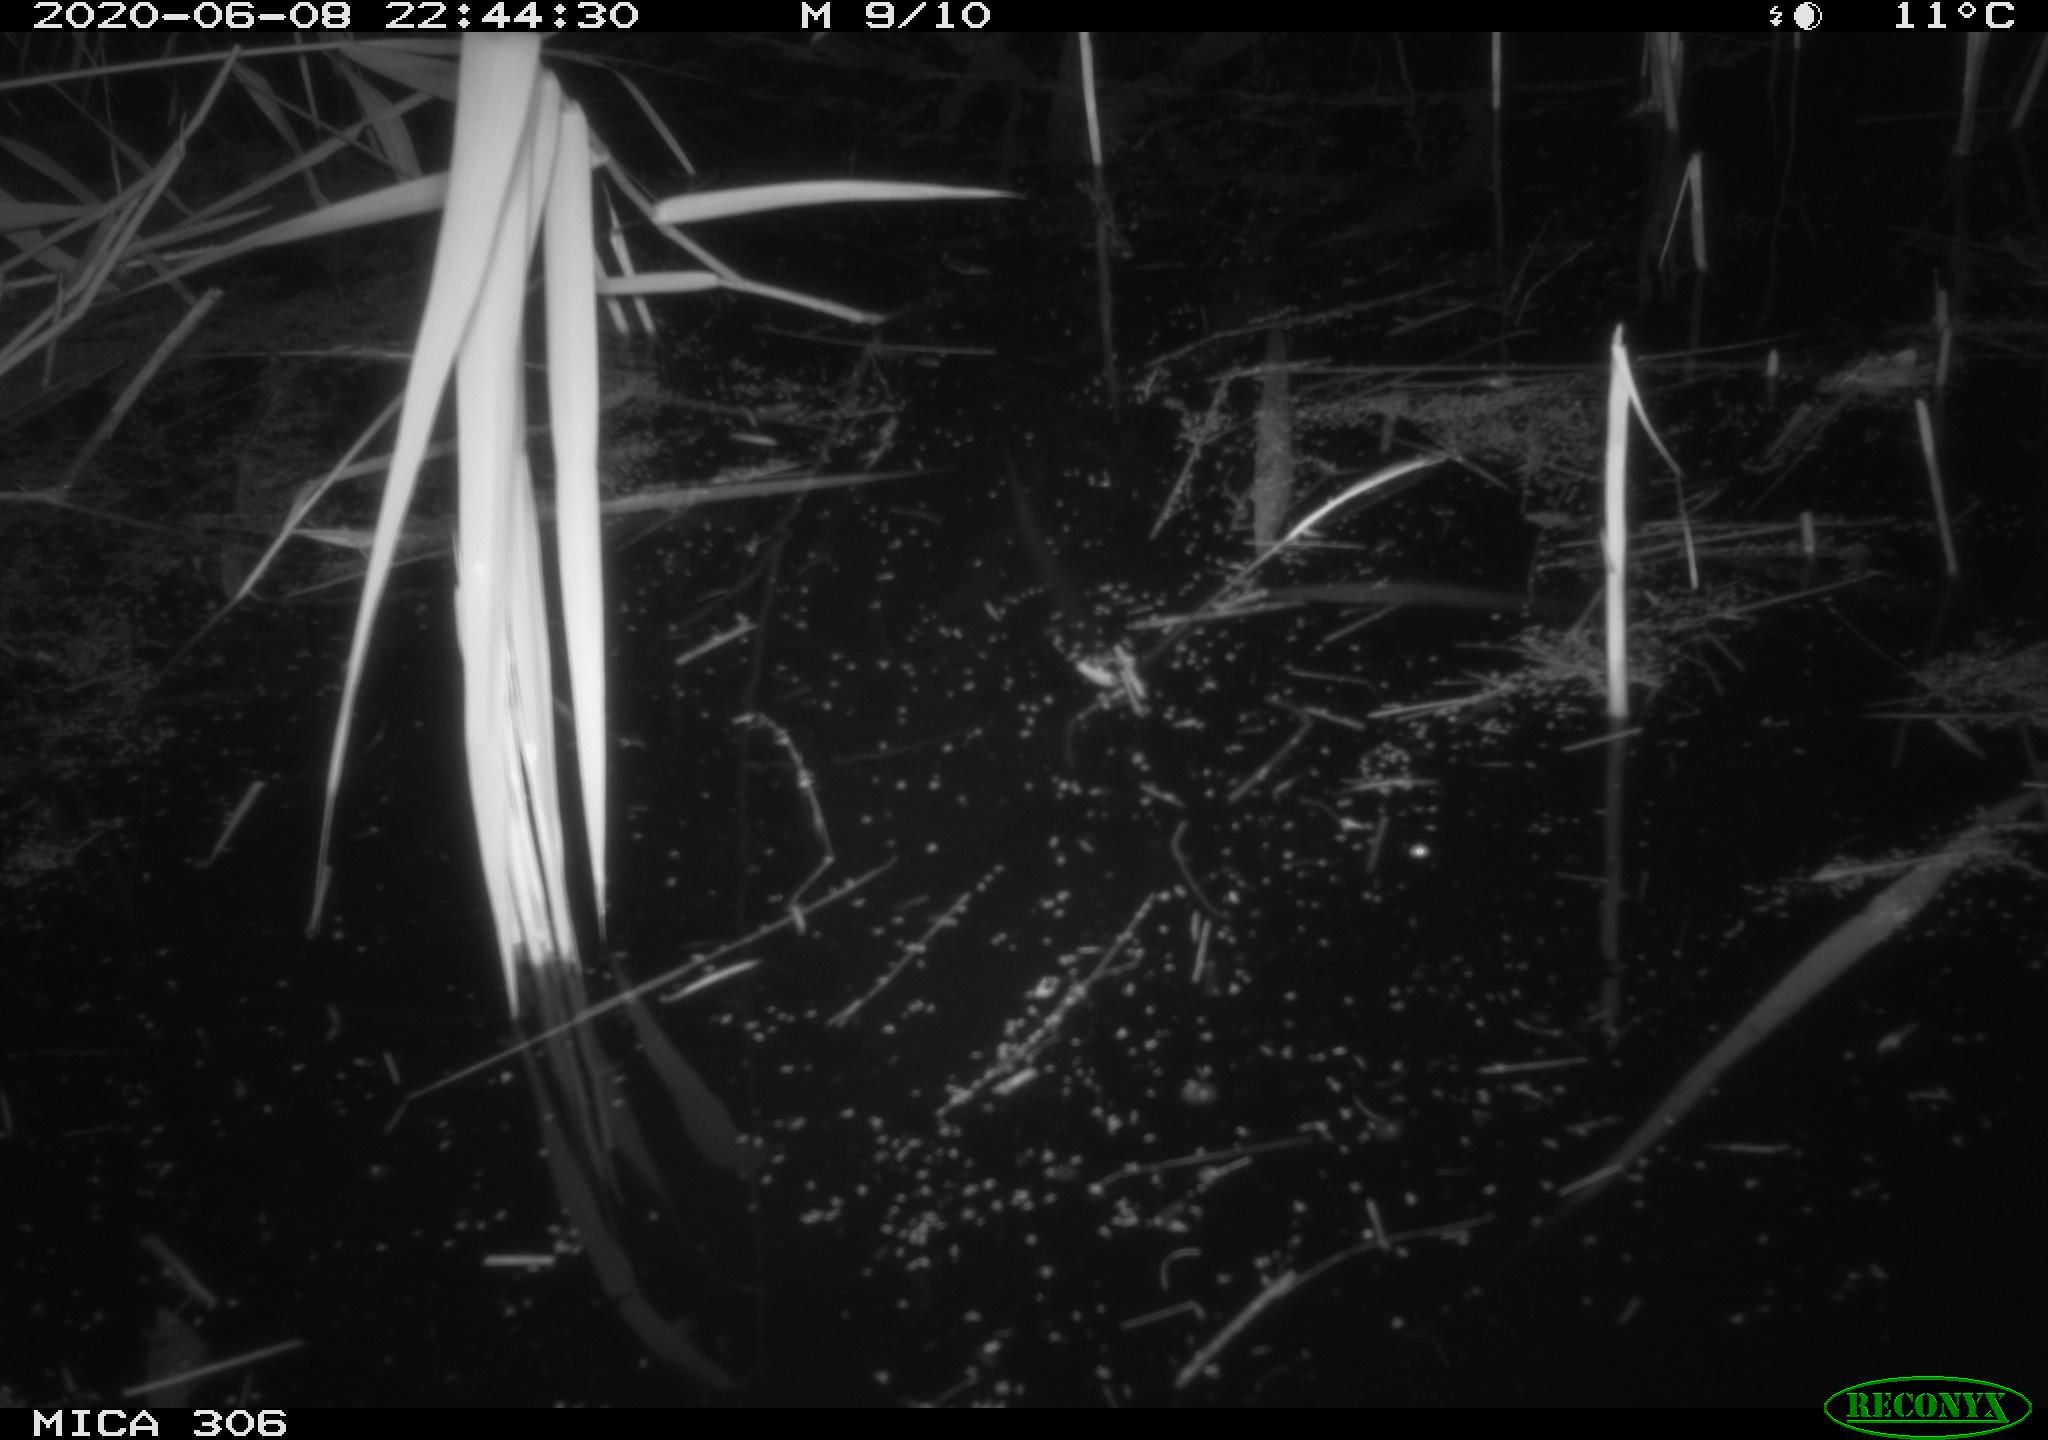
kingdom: Animalia
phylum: Chordata
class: Mammalia
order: Rodentia
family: Muridae
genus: Rattus
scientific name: Rattus norvegicus
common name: Brown rat
